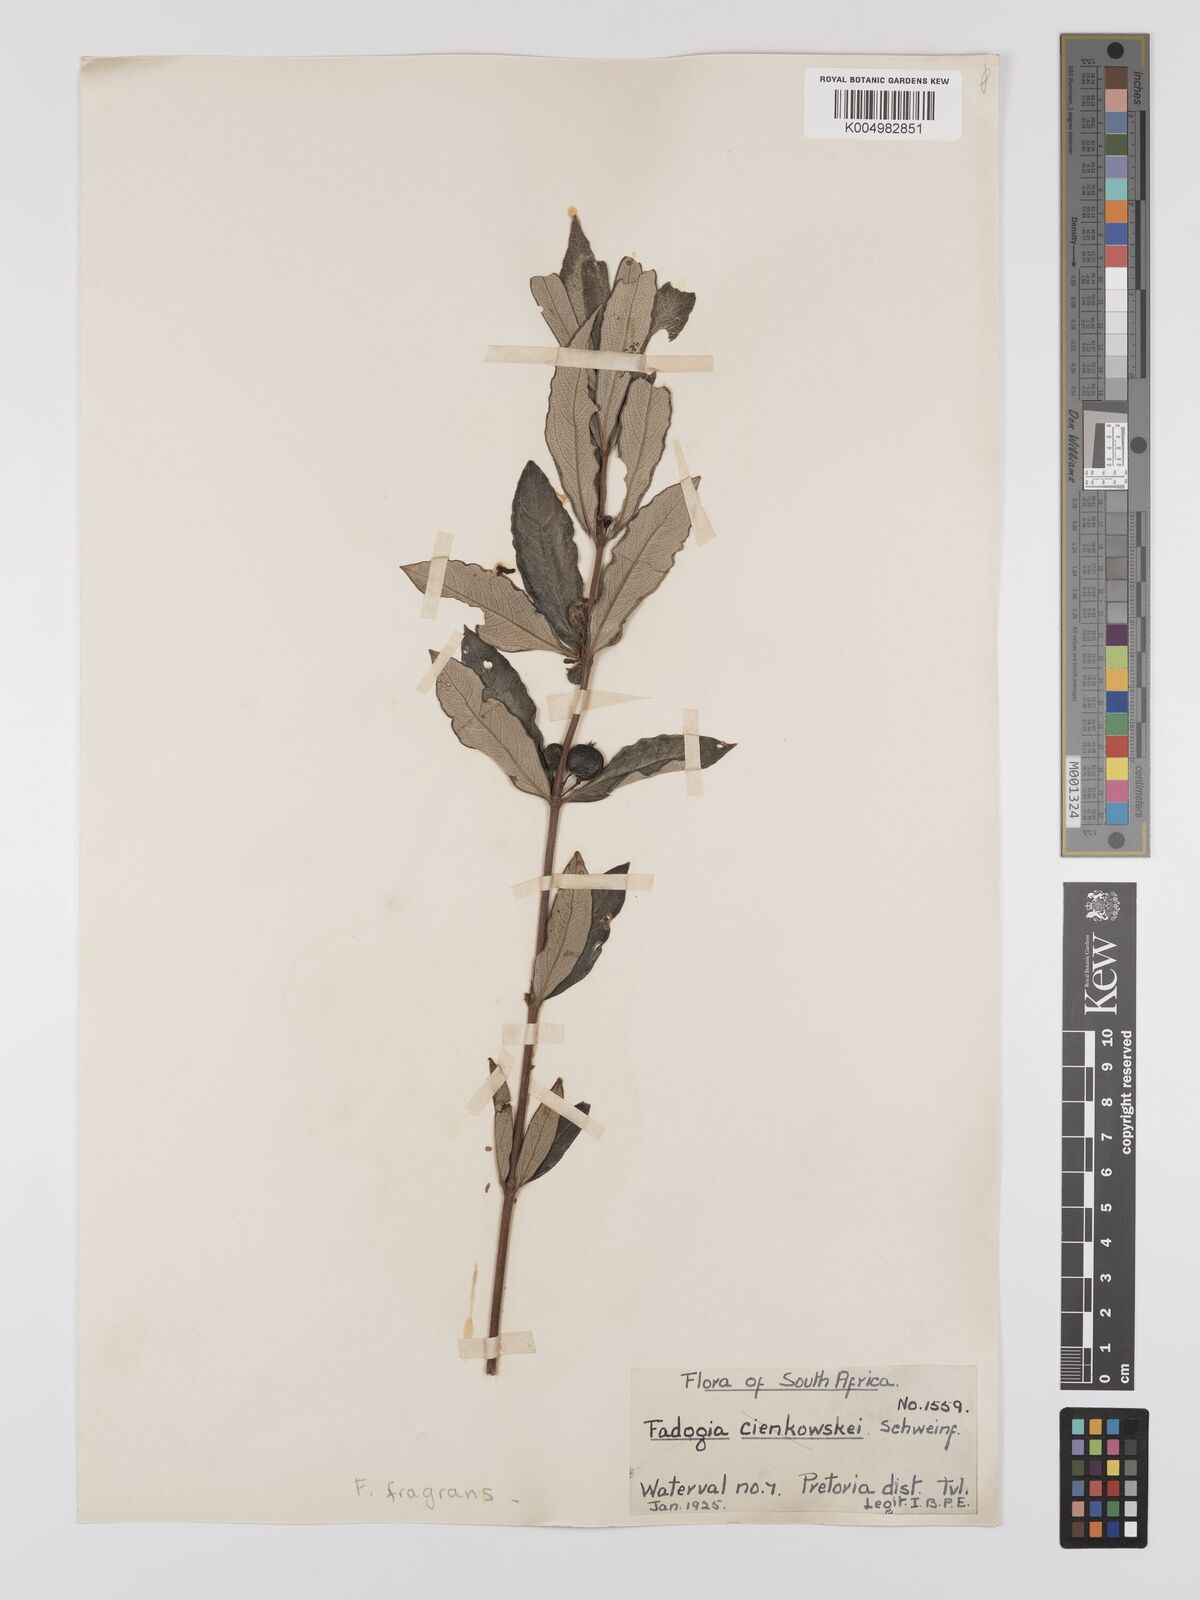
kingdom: Plantae
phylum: Tracheophyta
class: Magnoliopsida
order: Gentianales
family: Rubiaceae
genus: Fadogia
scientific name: Fadogia fragrans
